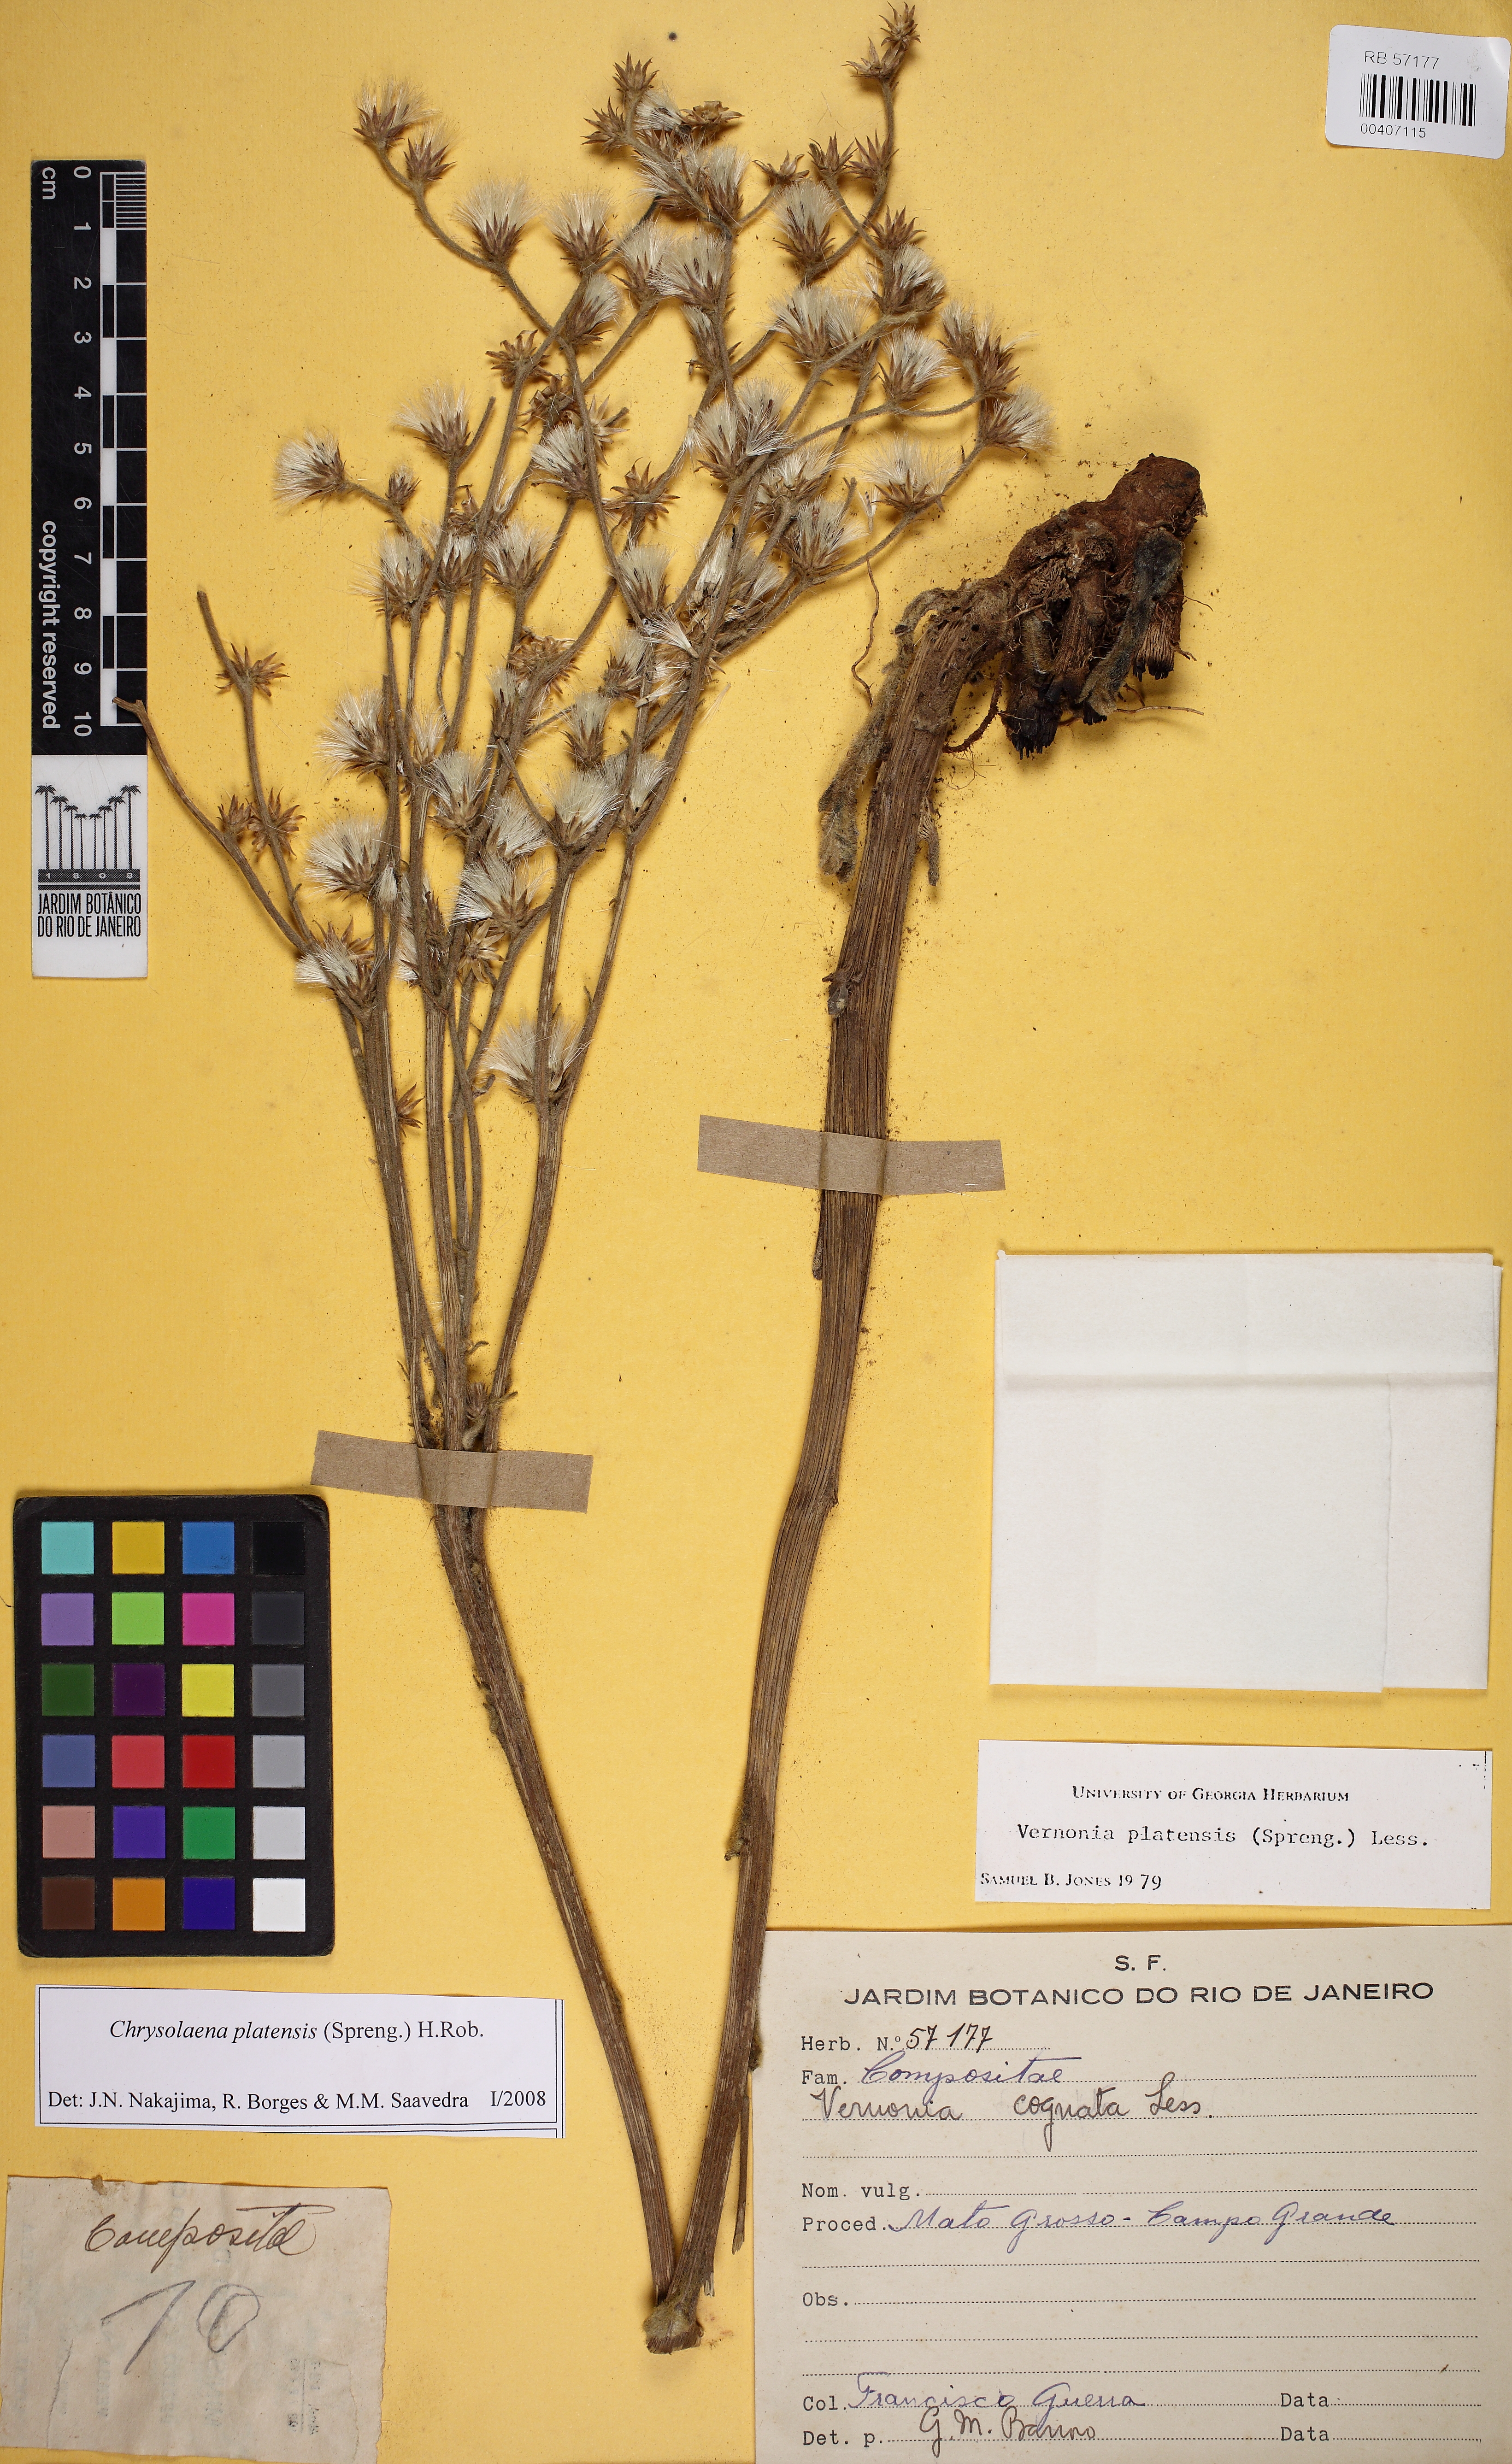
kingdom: Plantae
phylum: Tracheophyta
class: Magnoliopsida
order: Asterales
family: Asteraceae
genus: Chrysolaena
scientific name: Chrysolaena platensis
